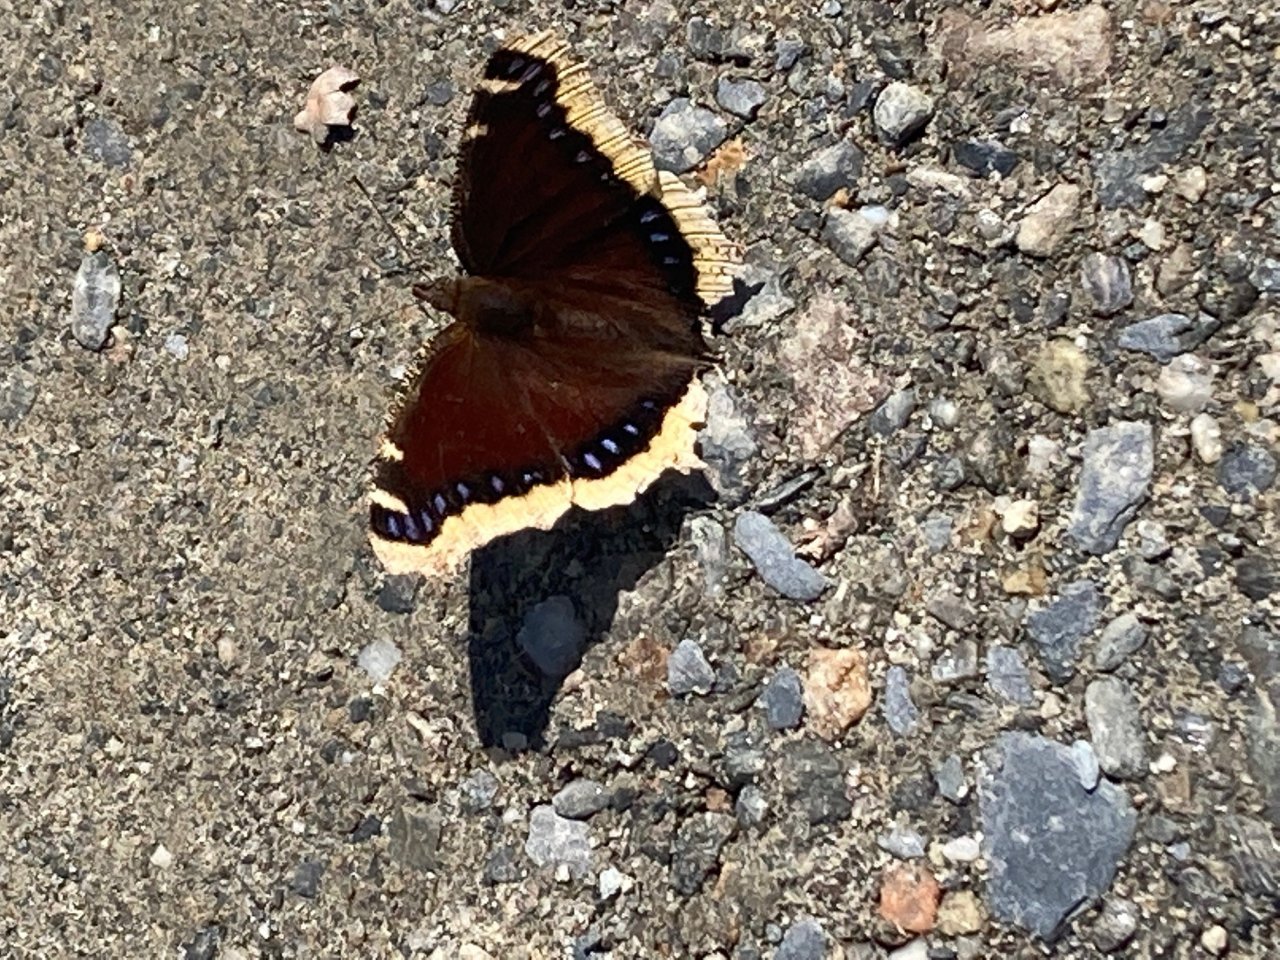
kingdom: Animalia
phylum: Arthropoda
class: Insecta
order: Lepidoptera
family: Nymphalidae
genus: Nymphalis
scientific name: Nymphalis antiopa
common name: Mourning Cloak
